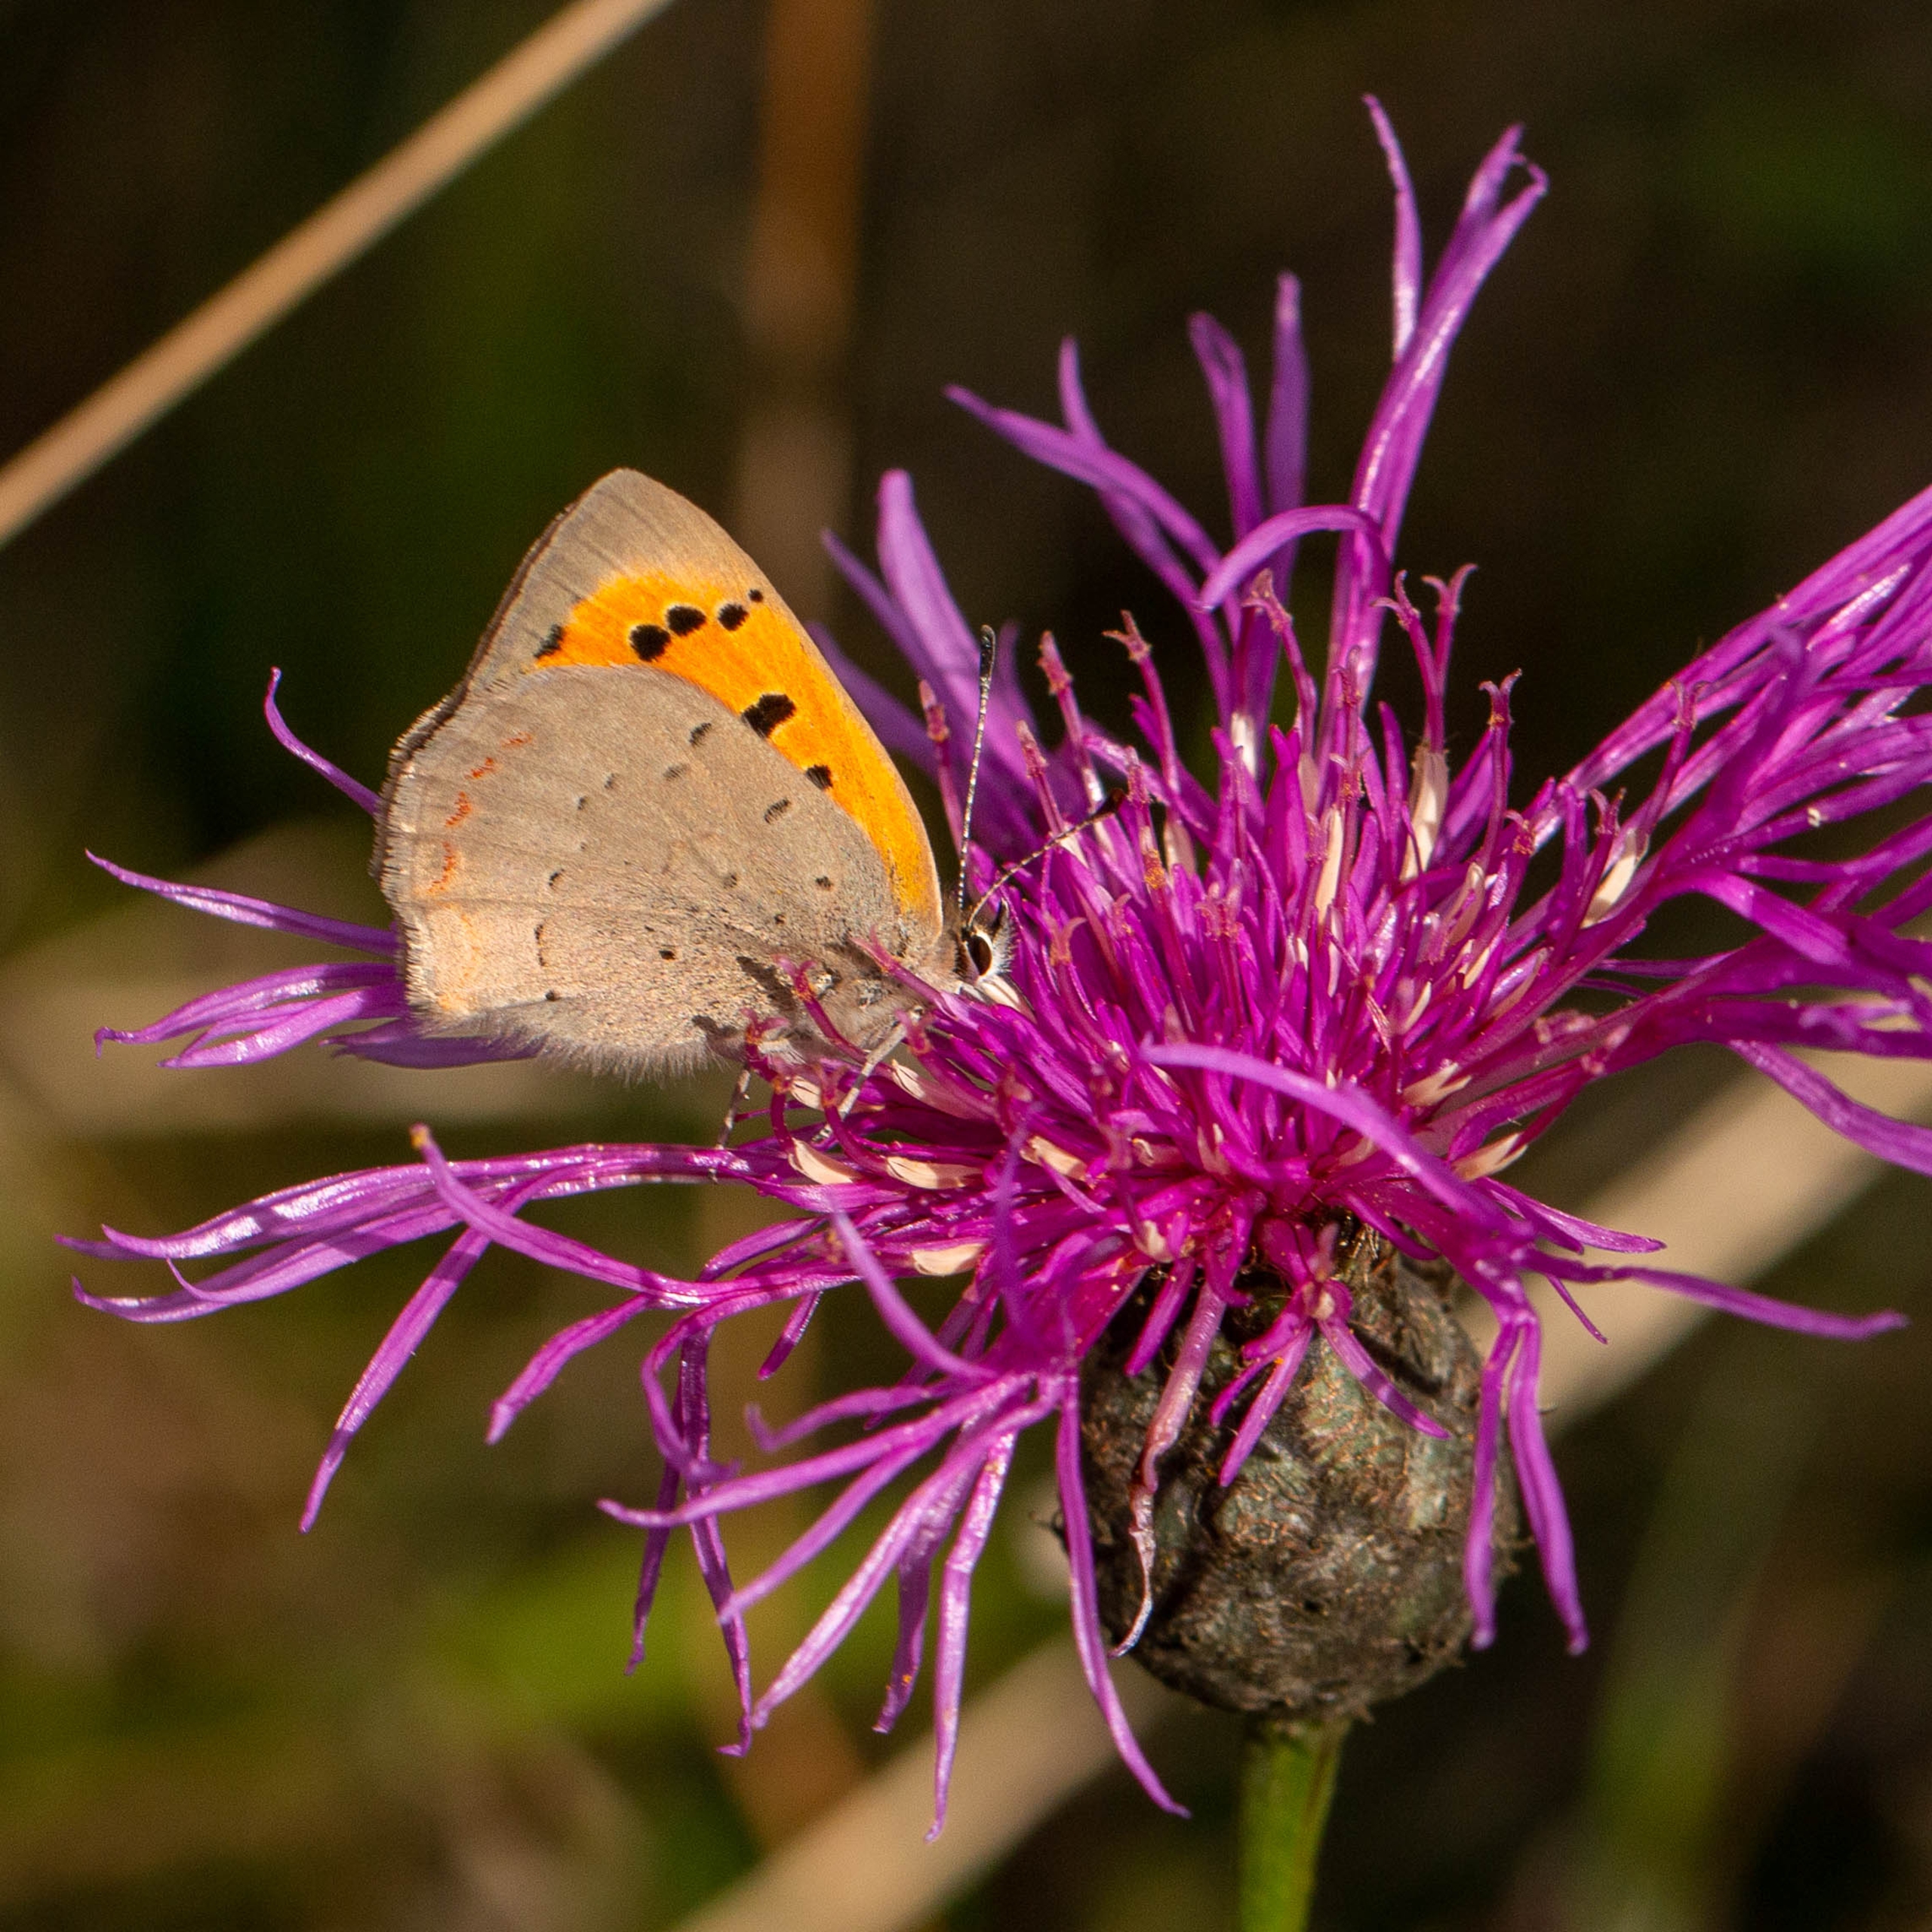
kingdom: Animalia
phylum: Arthropoda
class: Insecta
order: Lepidoptera
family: Lycaenidae
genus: Lycaena
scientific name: Lycaena phlaeas
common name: Lille ildfugl
